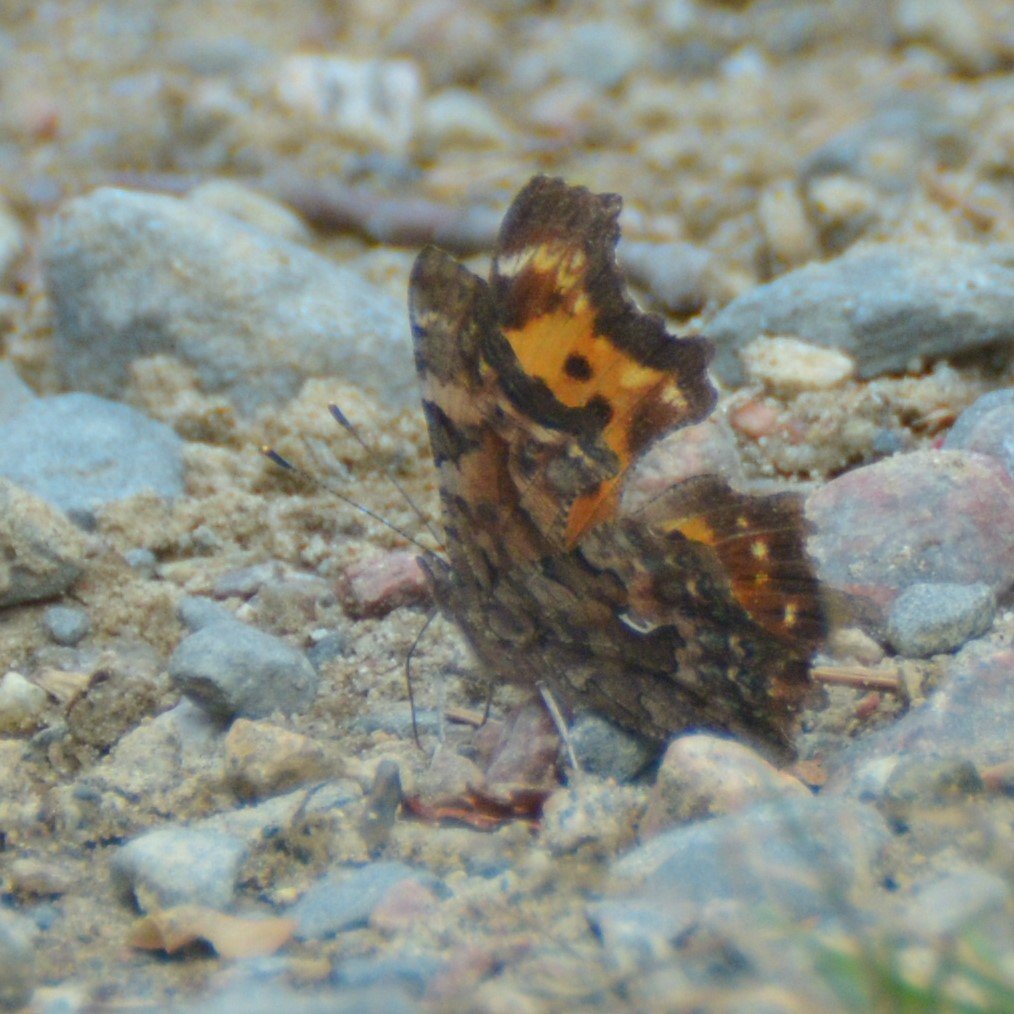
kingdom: Animalia
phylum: Arthropoda
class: Insecta
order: Lepidoptera
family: Nymphalidae
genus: Polygonia
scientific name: Polygonia faunus
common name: Green Comma
